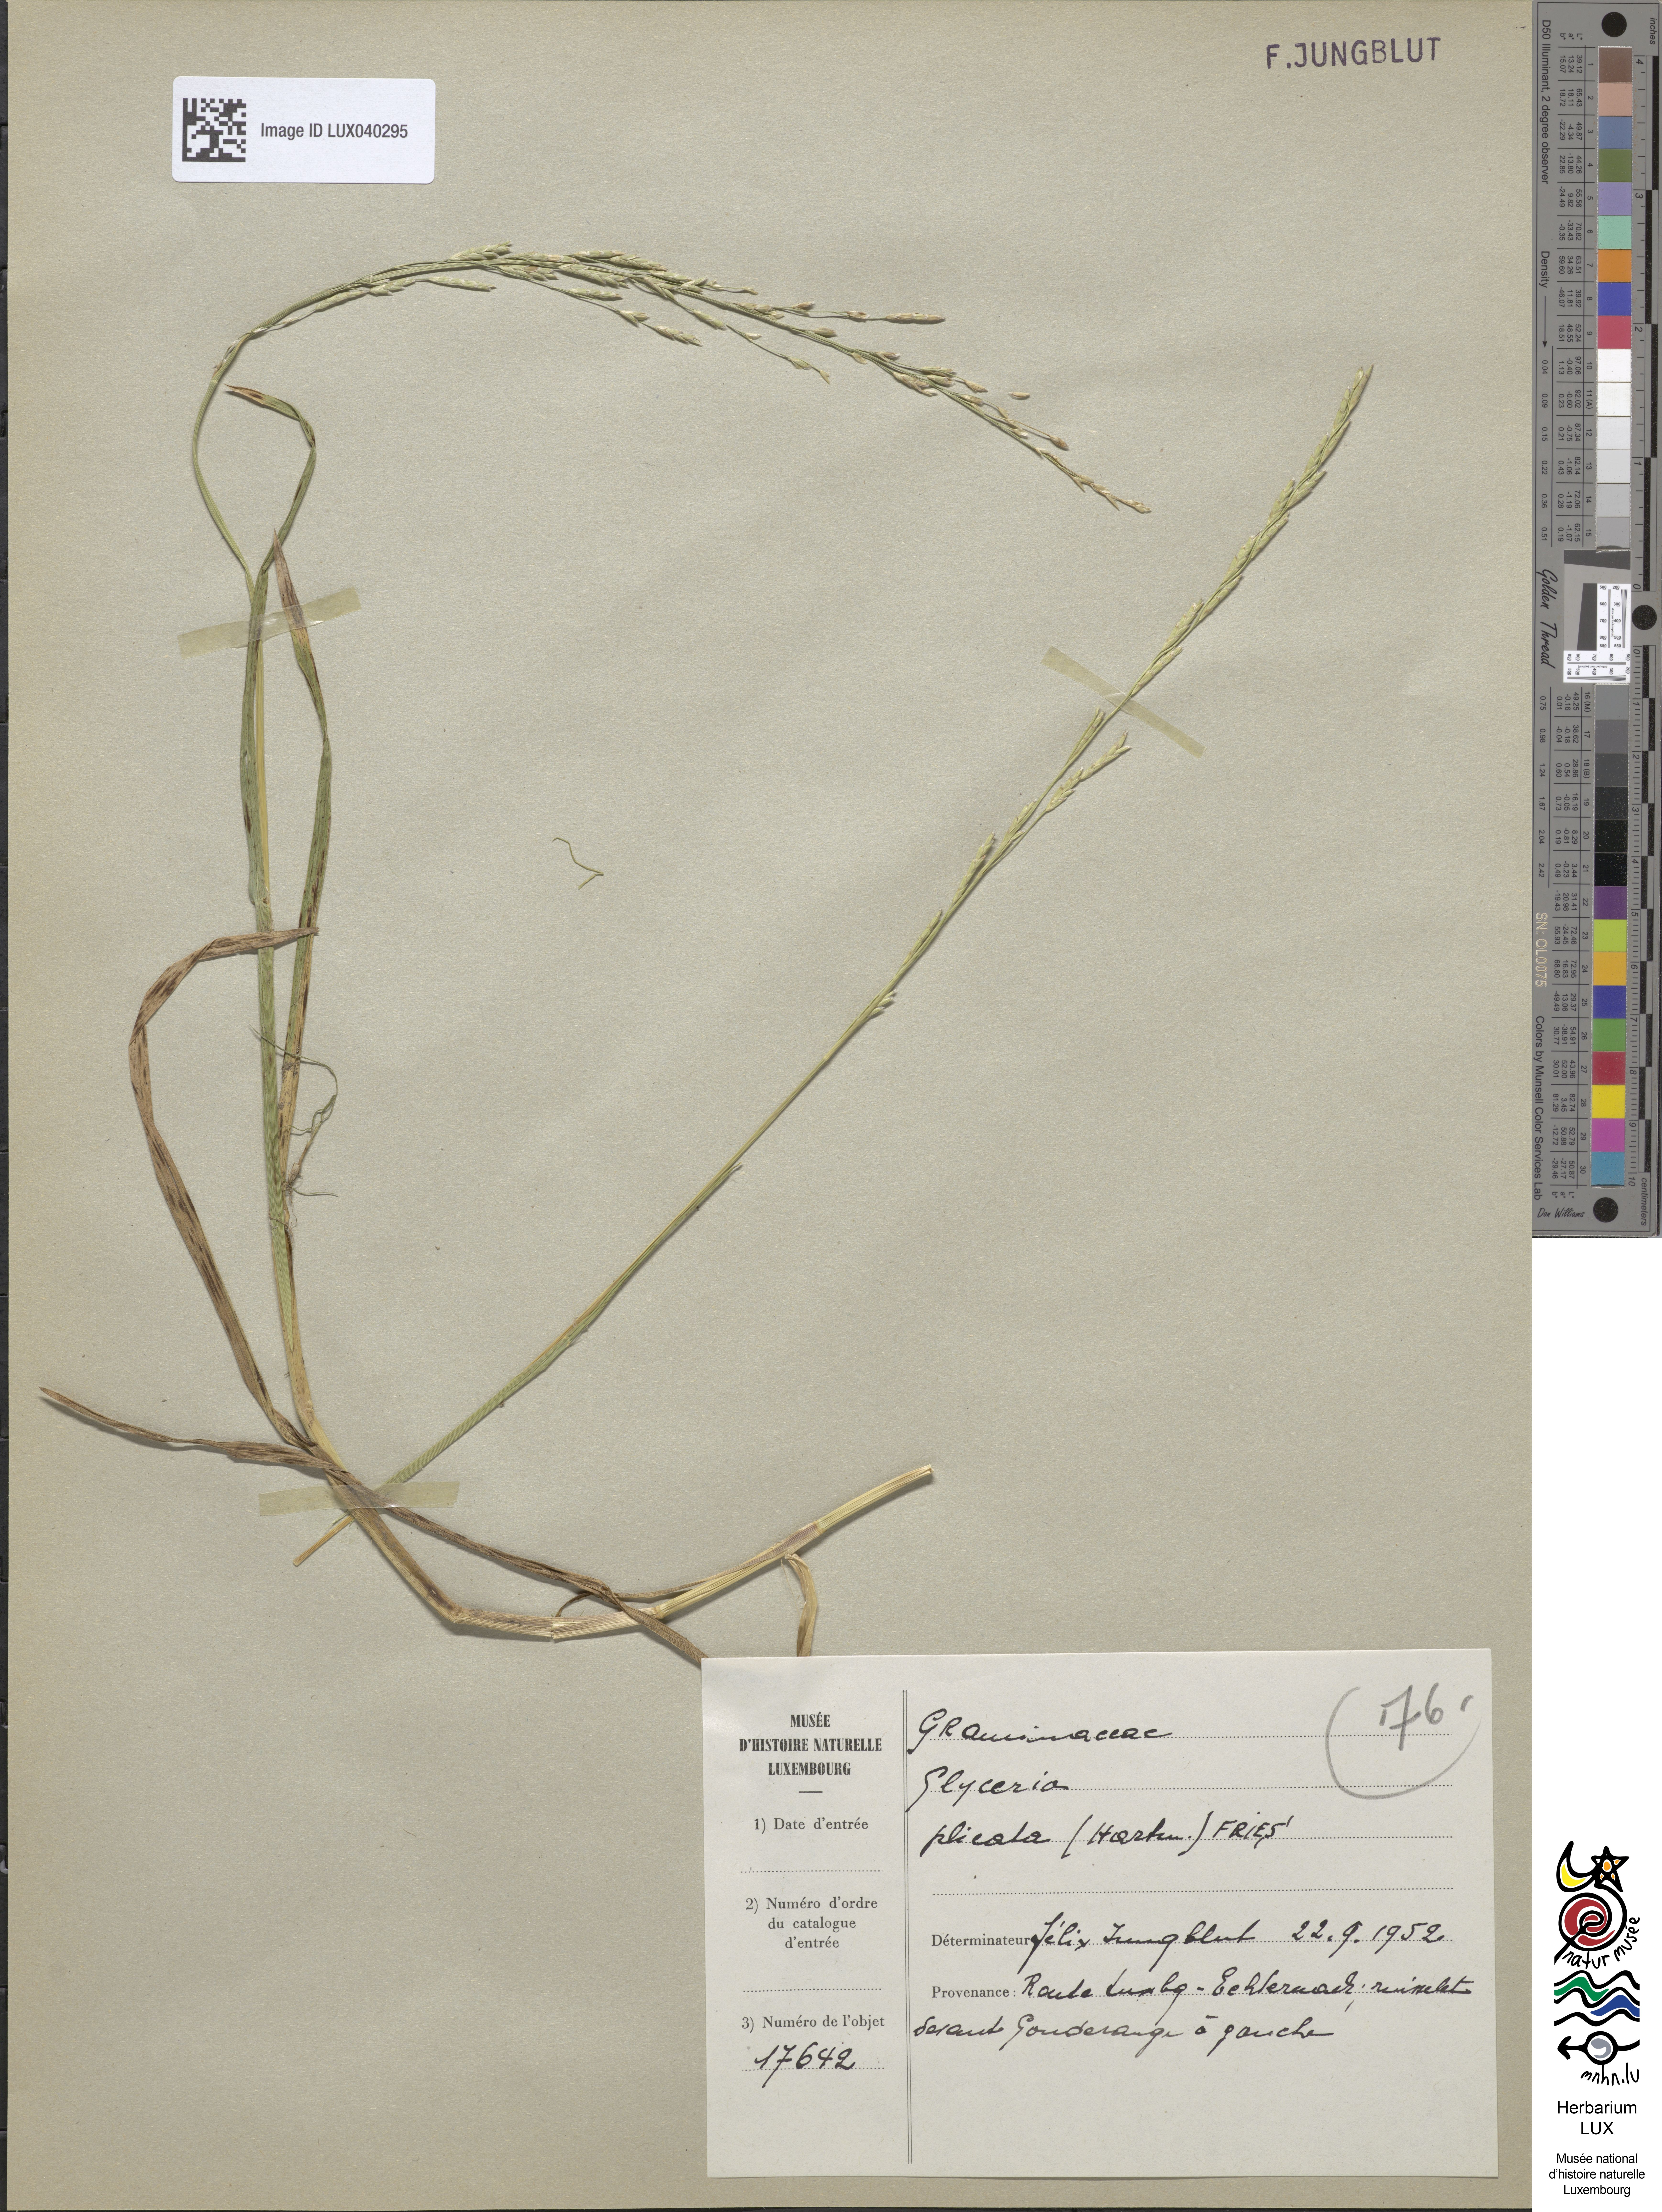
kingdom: Plantae
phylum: Tracheophyta
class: Liliopsida
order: Poales
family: Poaceae
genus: Glyceria
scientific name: Glyceria notata
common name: Plicate sweet-grass
